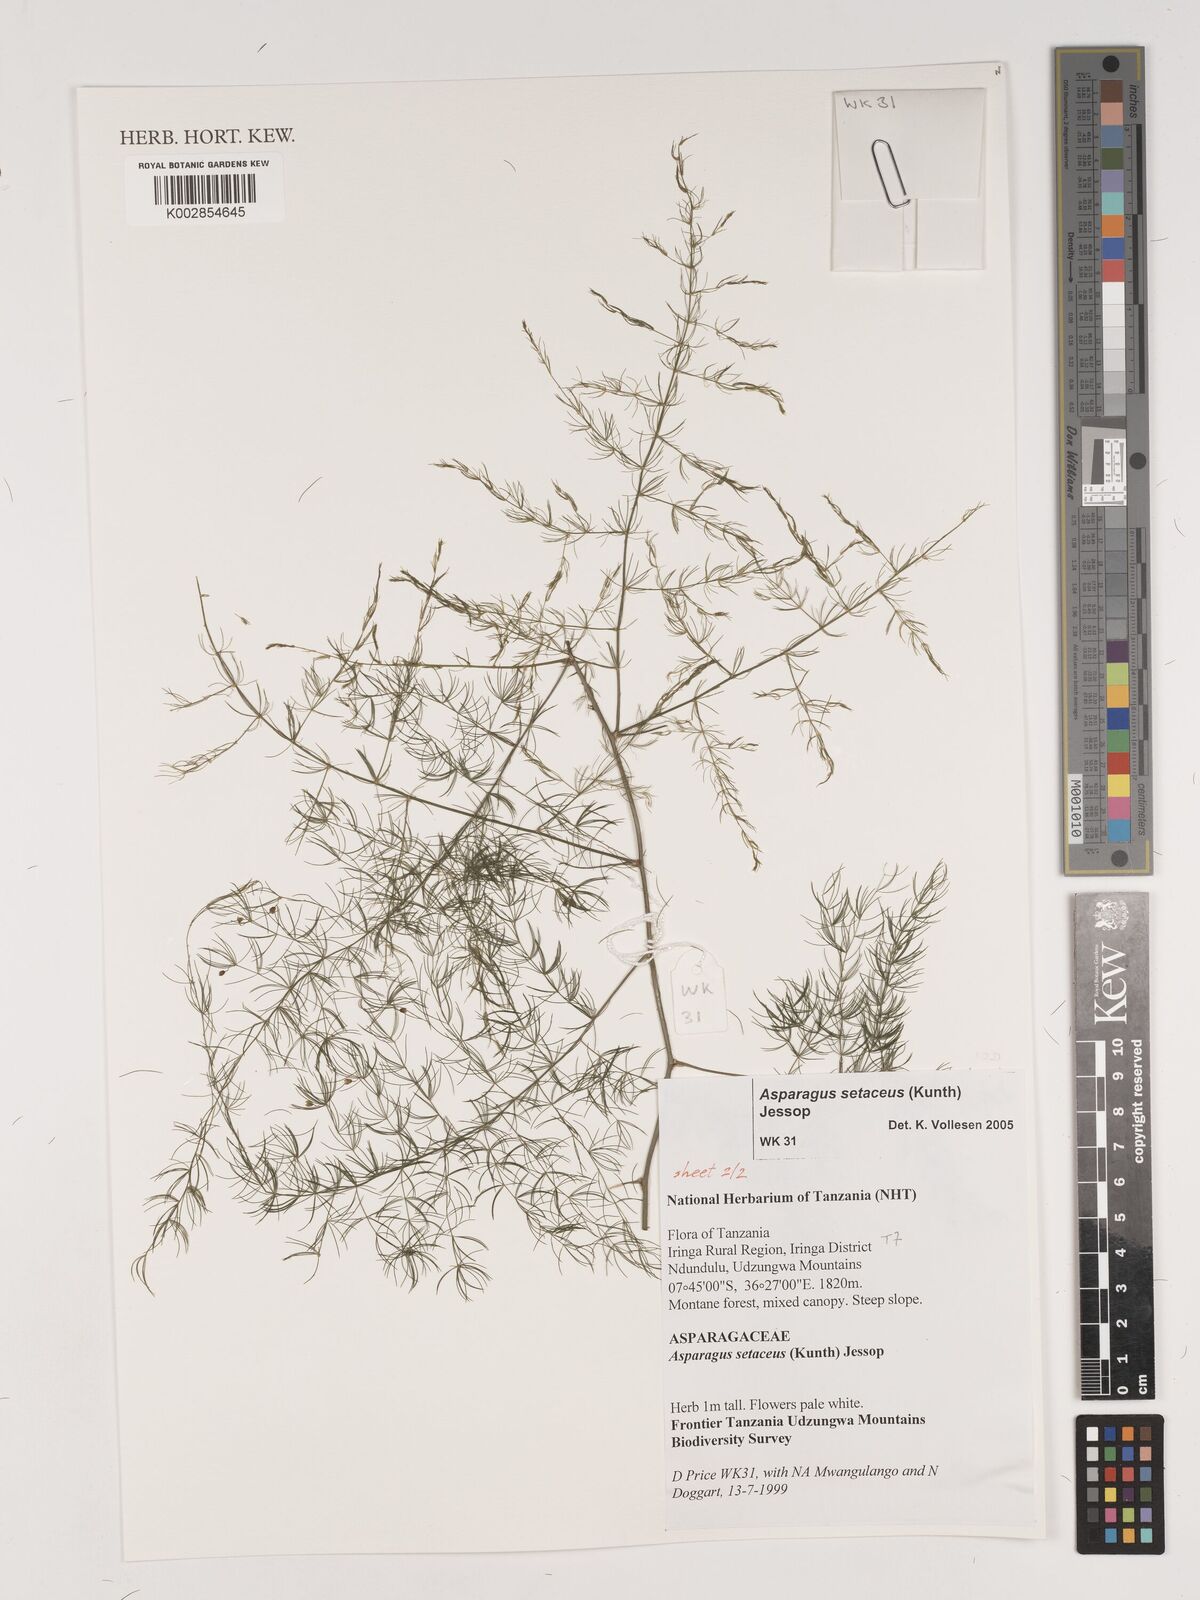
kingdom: Plantae
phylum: Tracheophyta
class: Liliopsida
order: Asparagales
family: Asparagaceae
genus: Asparagus
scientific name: Asparagus setaceus
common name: Common asparagus fern
